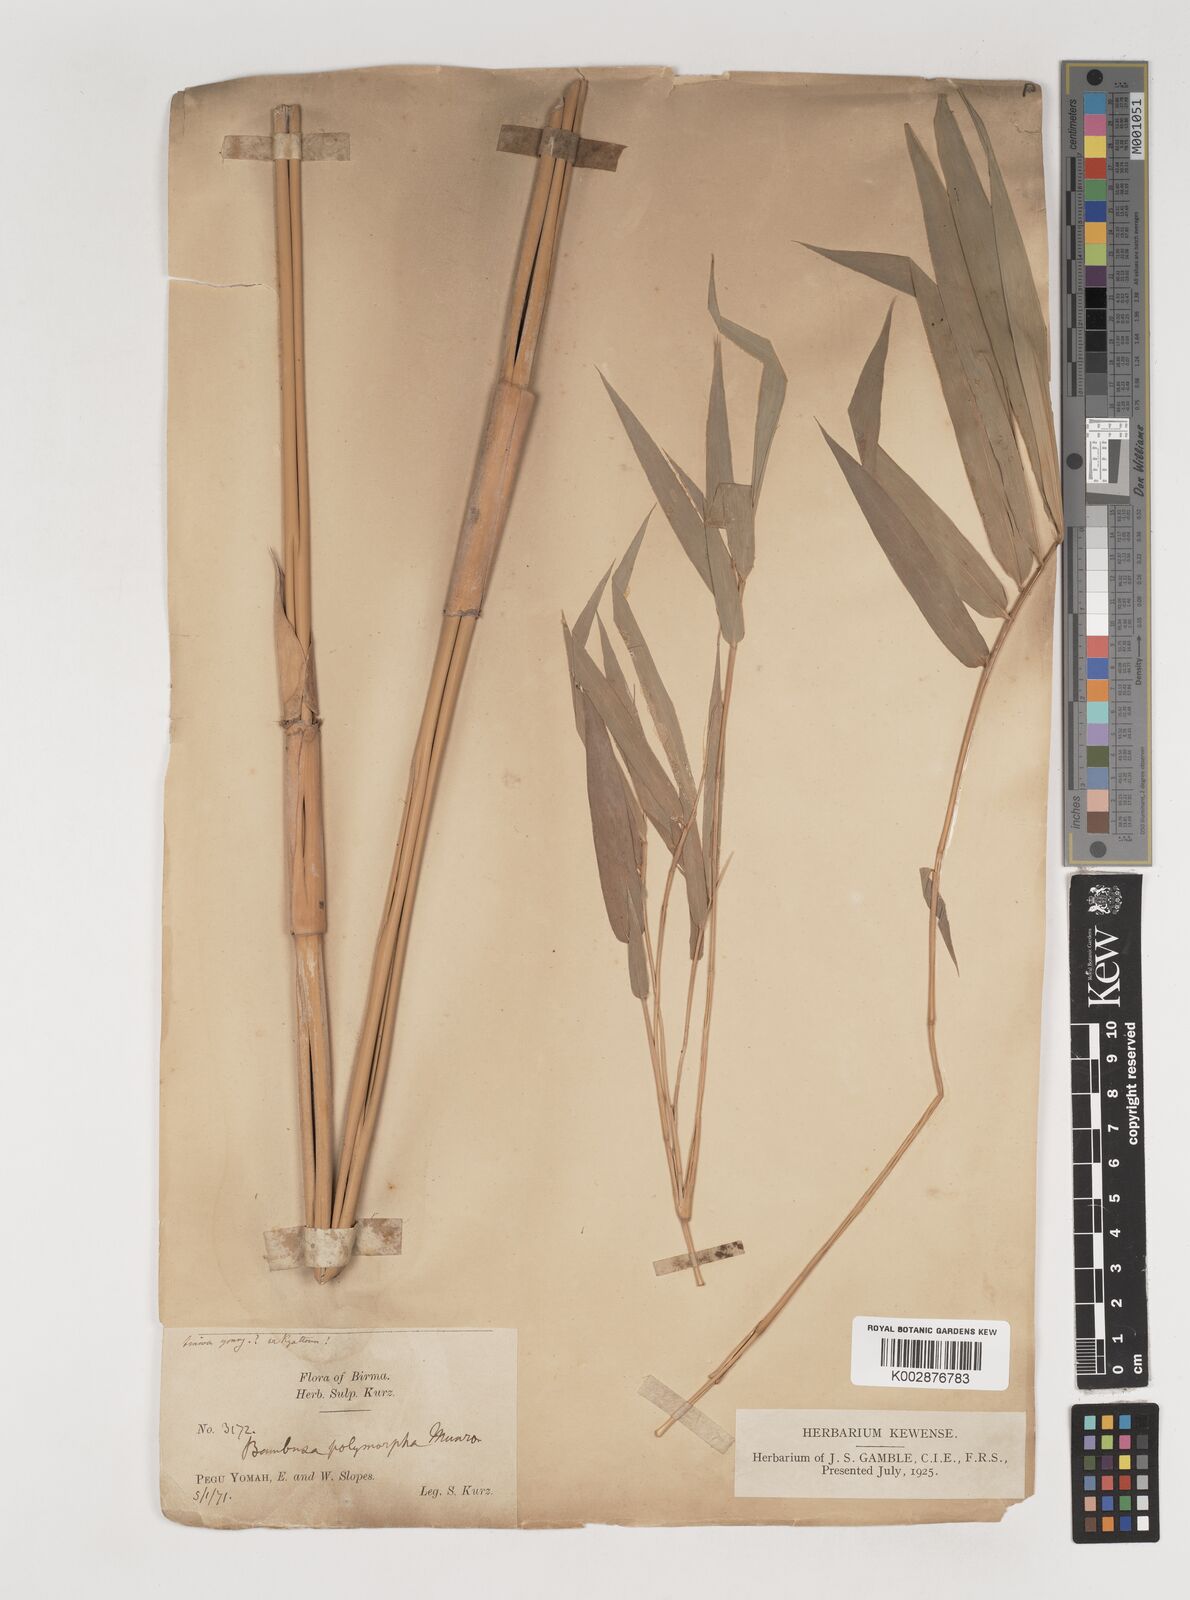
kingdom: Plantae
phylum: Tracheophyta
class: Liliopsida
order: Poales
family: Poaceae
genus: Bambusa
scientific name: Bambusa polymorpha
